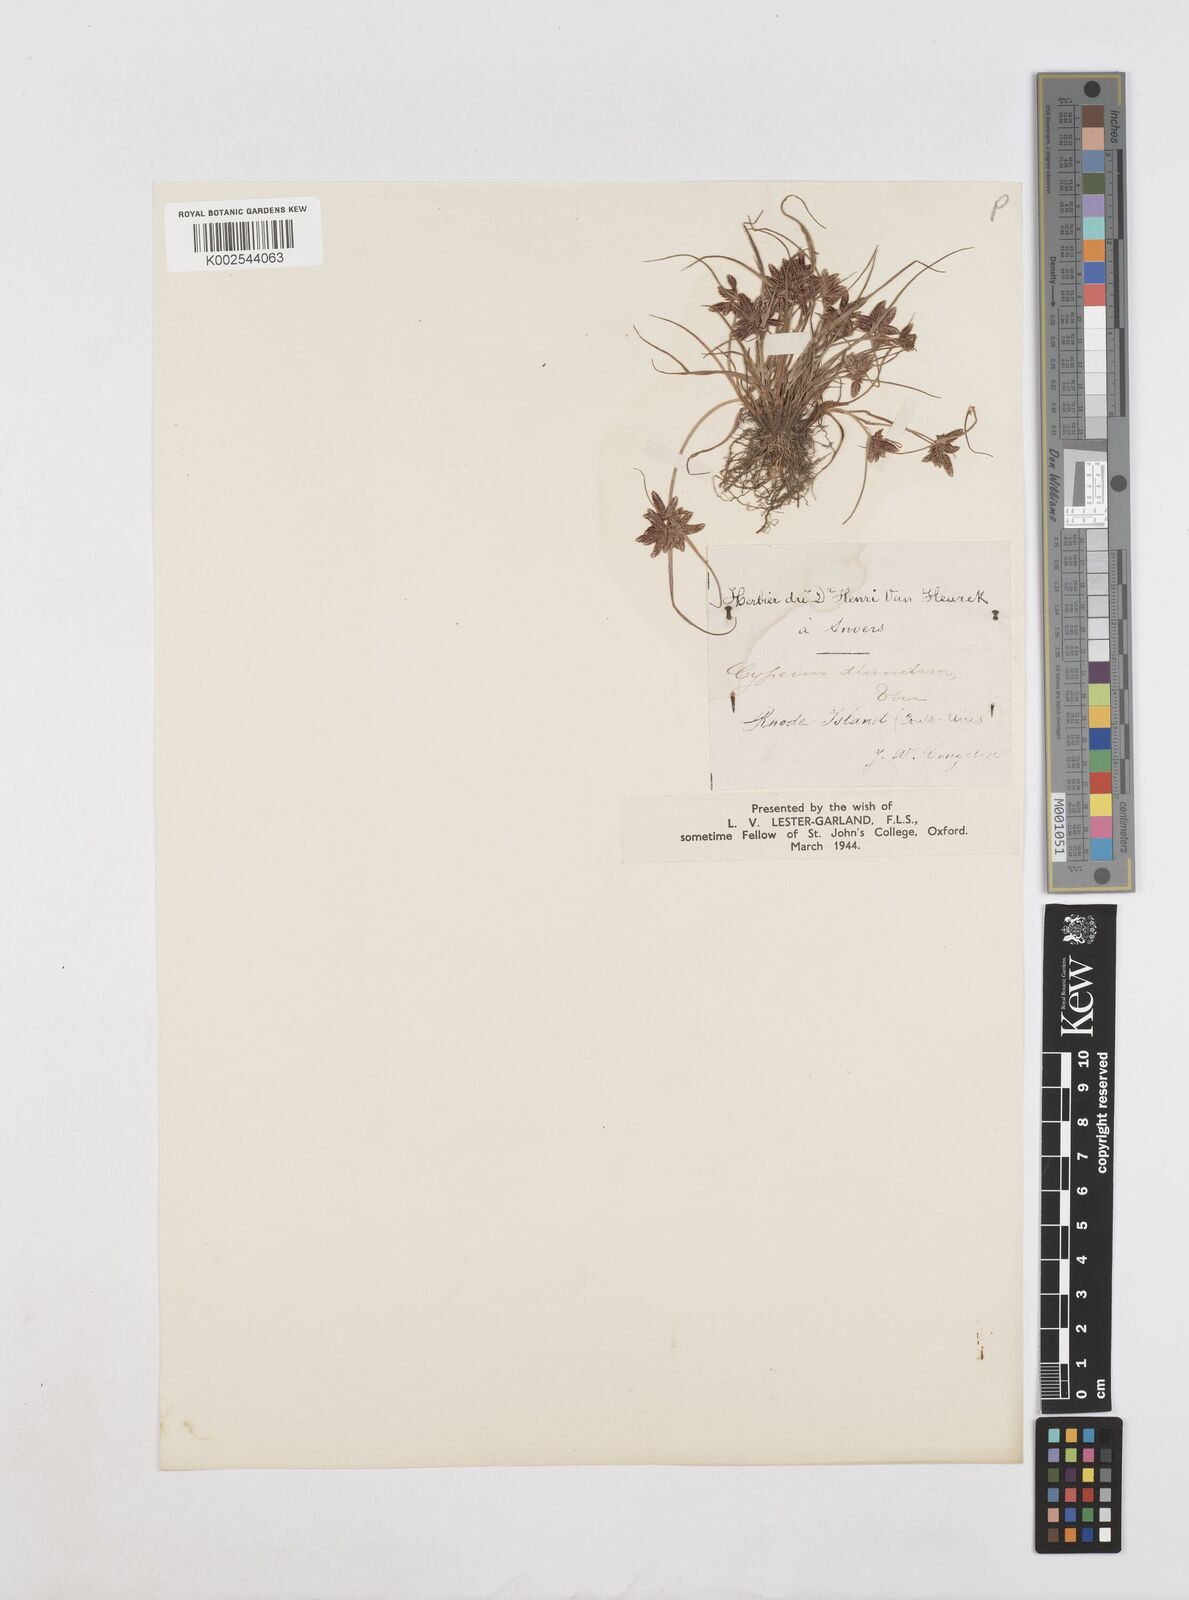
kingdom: Plantae
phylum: Tracheophyta
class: Liliopsida
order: Poales
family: Cyperaceae
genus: Cyperus
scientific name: Cyperus diandrus
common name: Low cyperus
